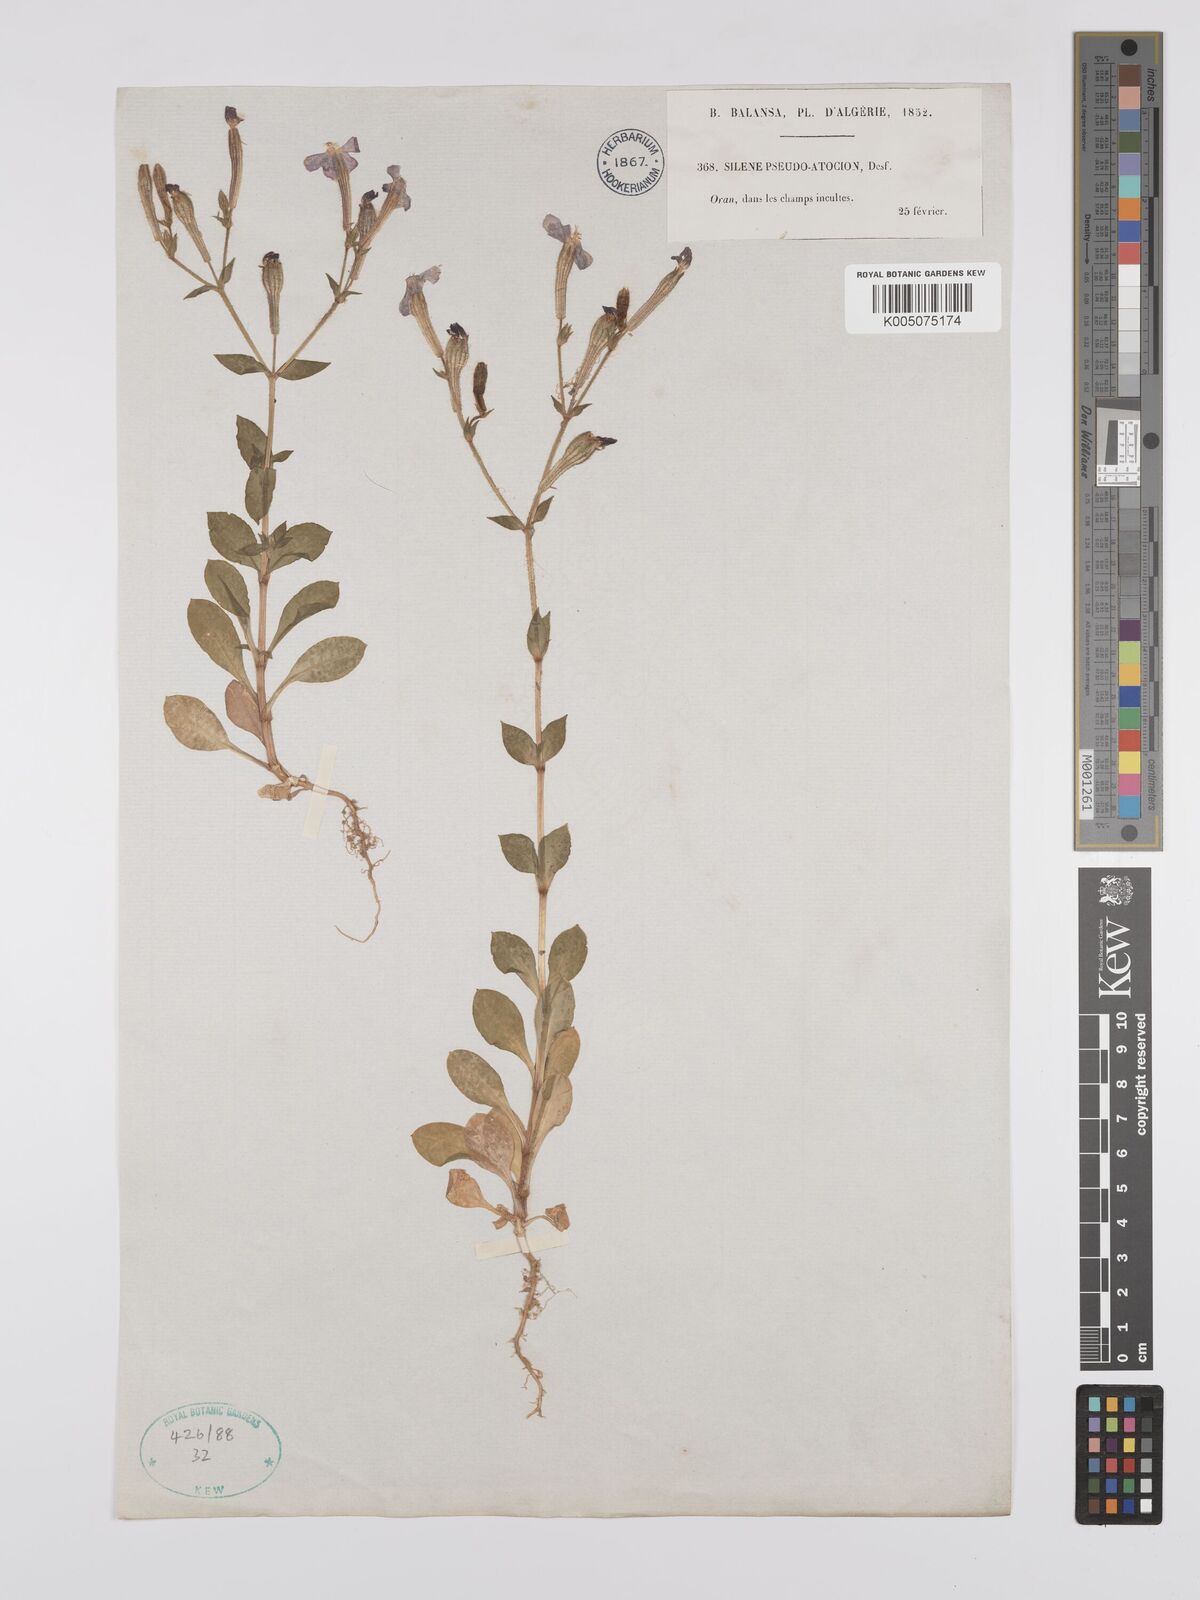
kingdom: Plantae
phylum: Tracheophyta
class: Magnoliopsida
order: Caryophyllales
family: Caryophyllaceae
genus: Silene
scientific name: Silene pseudoatocion
